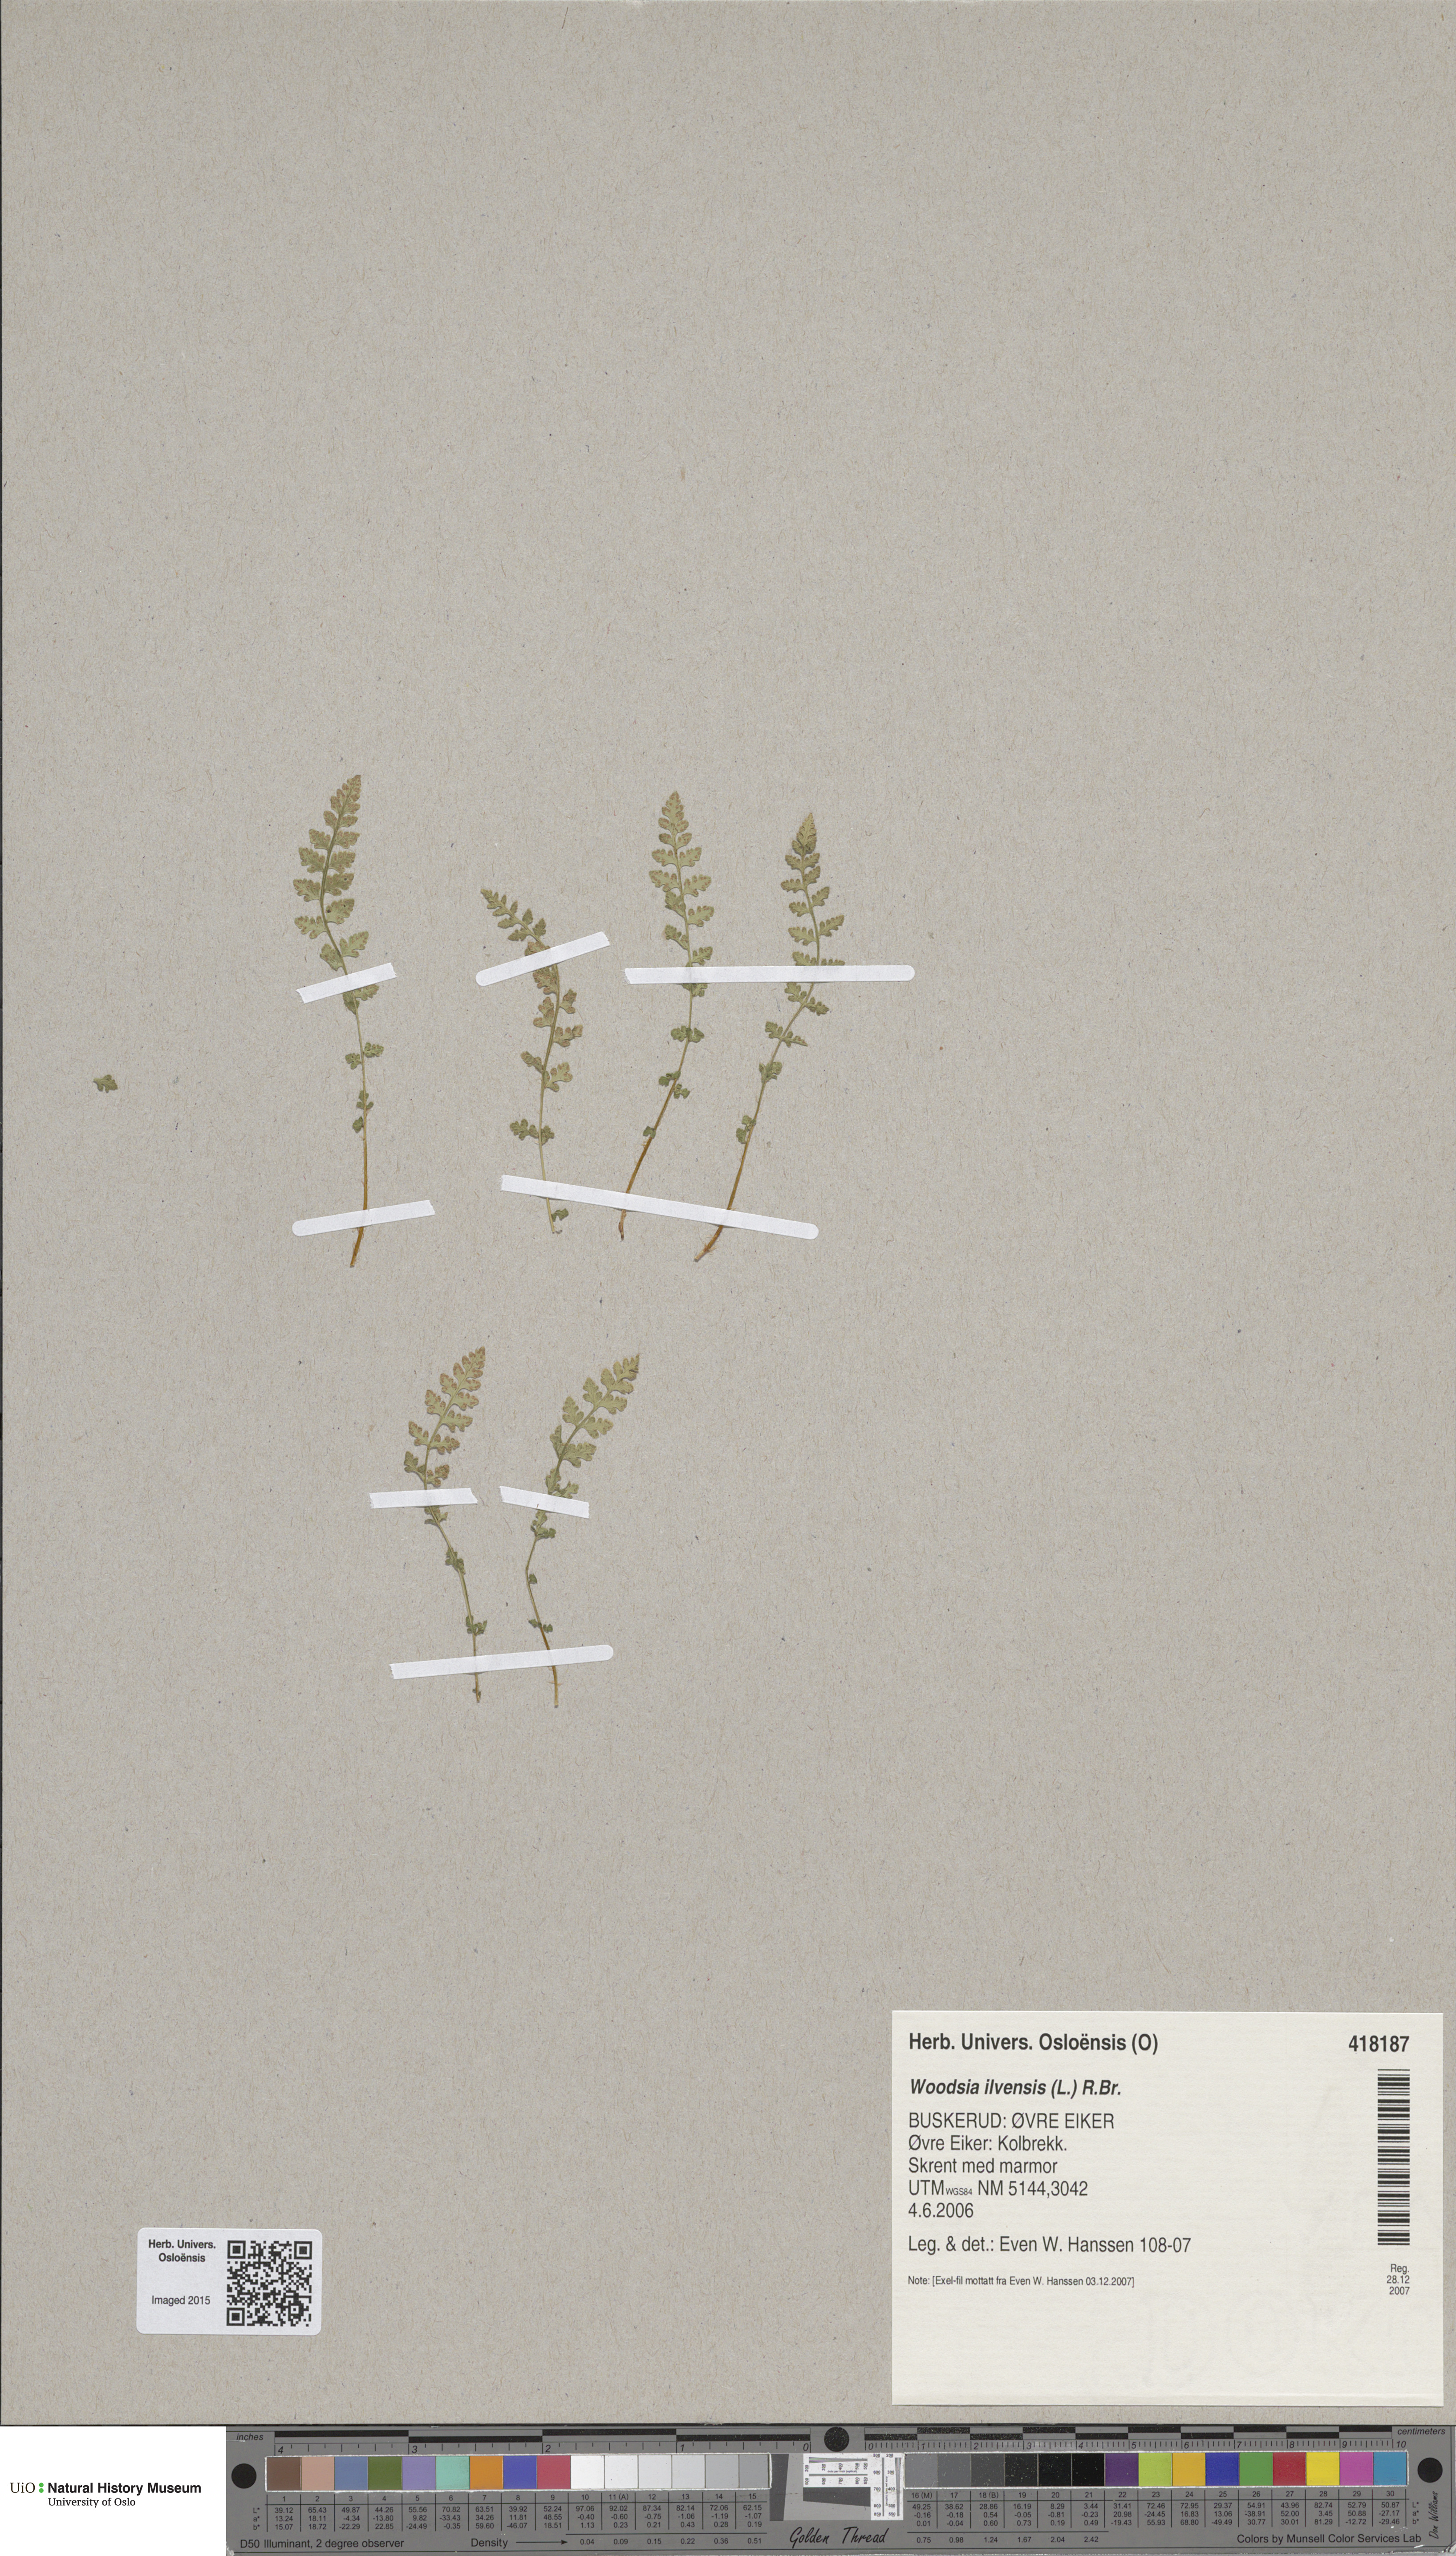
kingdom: Plantae
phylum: Tracheophyta
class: Polypodiopsida
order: Polypodiales
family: Woodsiaceae
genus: Woodsia
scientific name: Woodsia alpina
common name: Alpine woodsia
